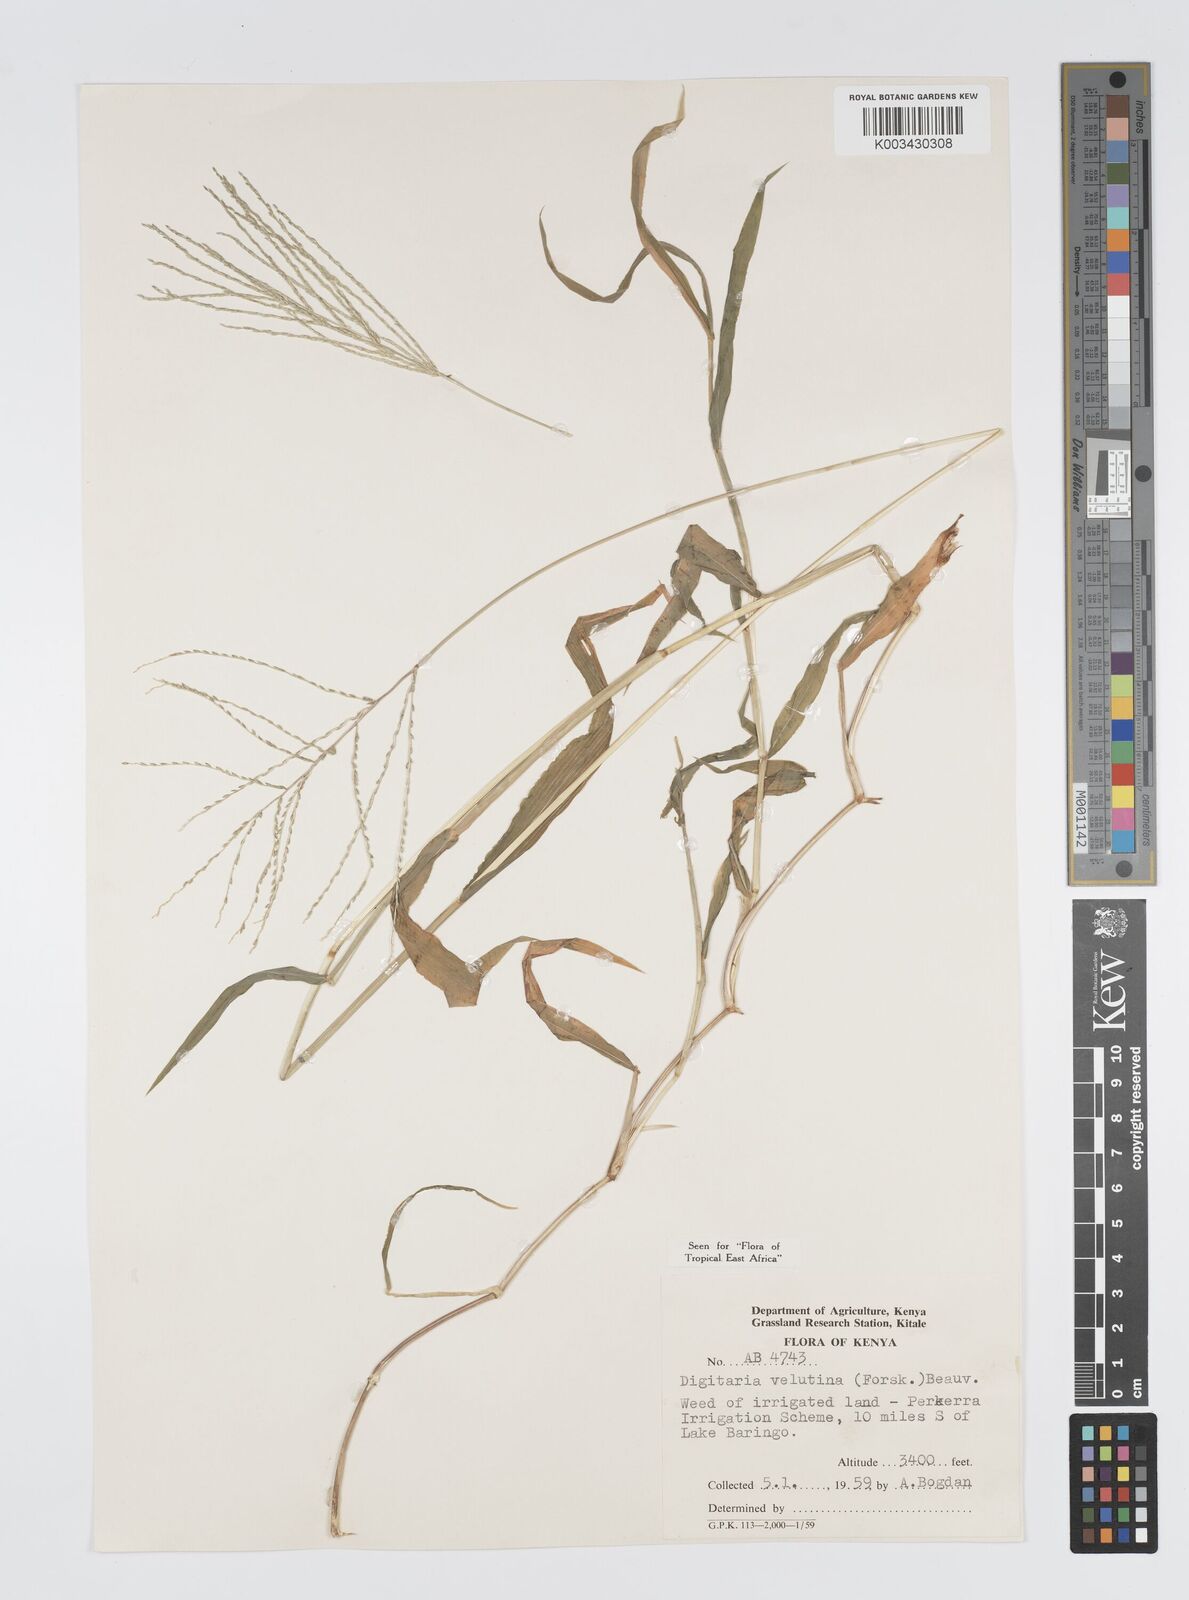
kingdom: Plantae
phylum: Tracheophyta
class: Liliopsida
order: Poales
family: Poaceae
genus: Digitaria
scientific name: Digitaria velutina
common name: Long-plume finger grass
